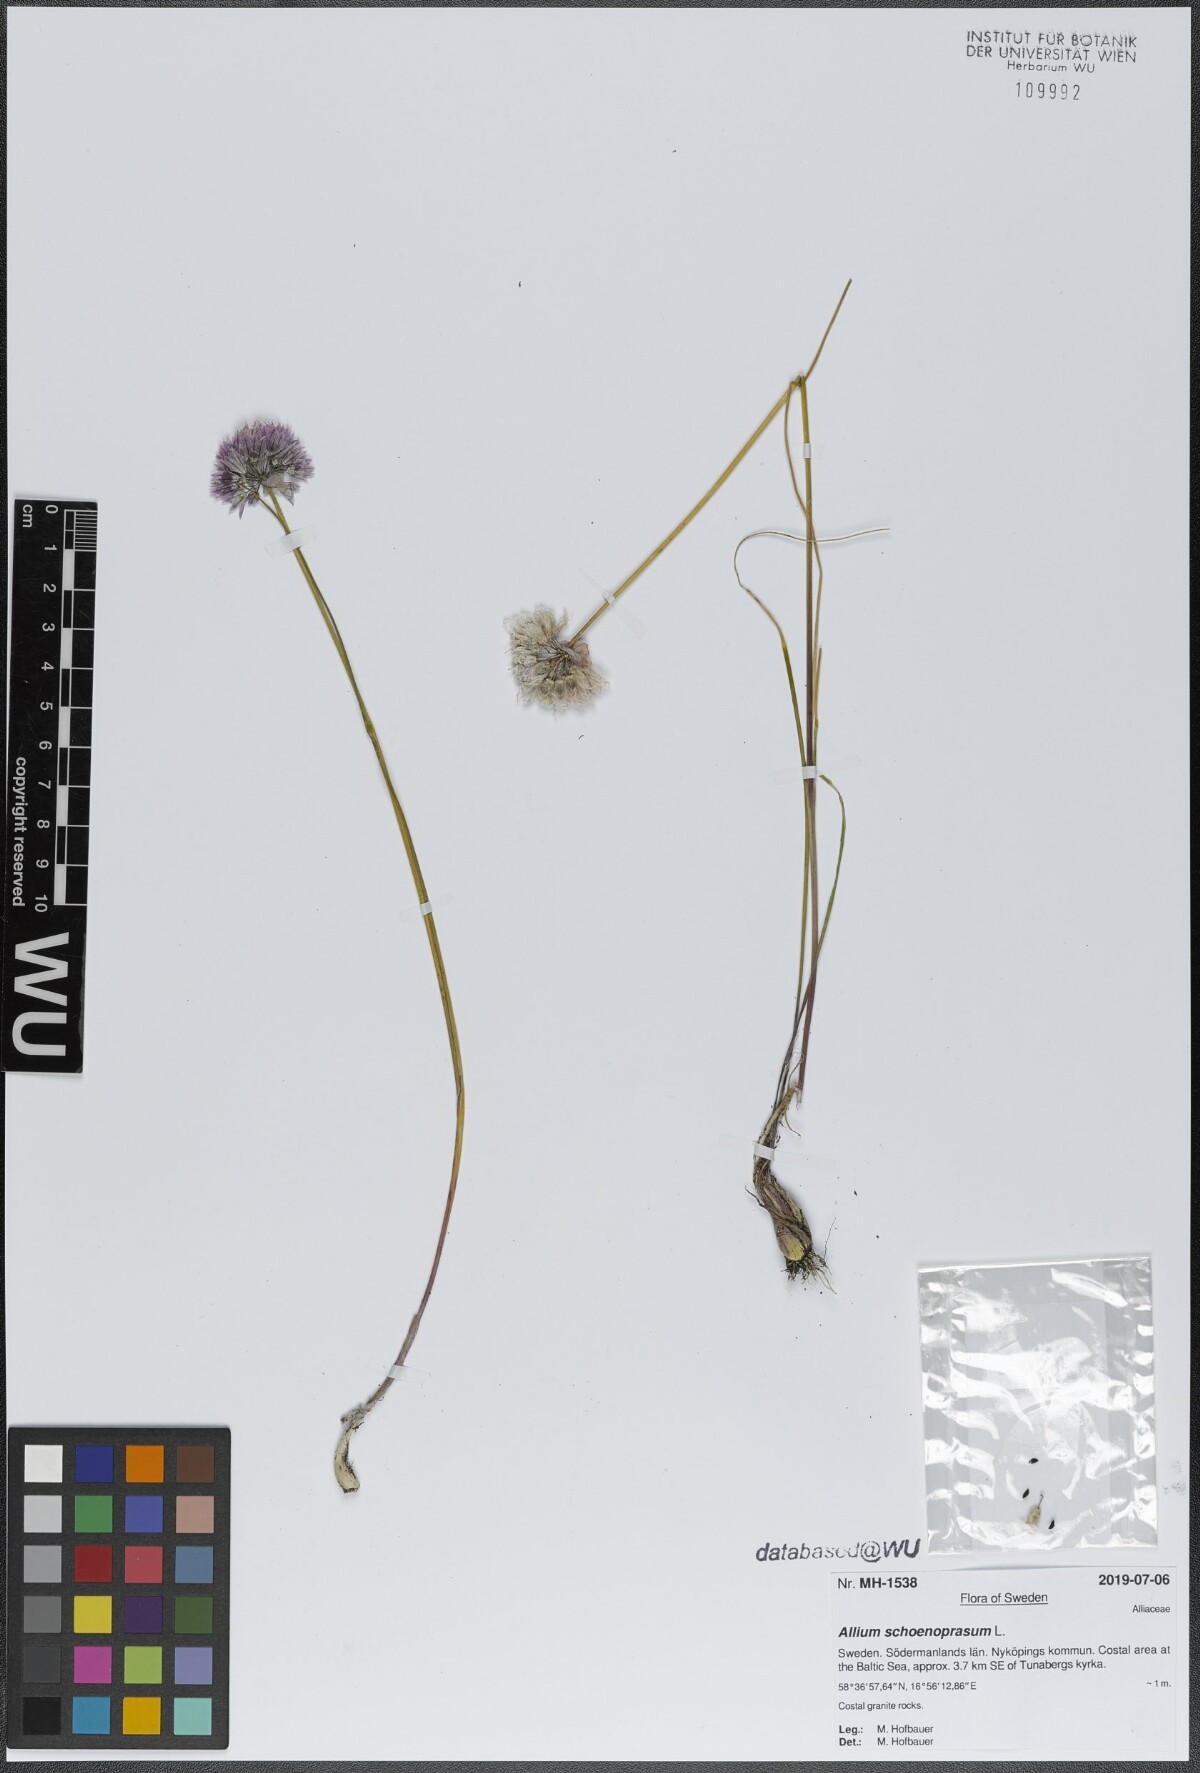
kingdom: Plantae
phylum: Tracheophyta
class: Liliopsida
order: Asparagales
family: Amaryllidaceae
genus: Allium
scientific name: Allium schoenoprasum
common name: Chives
